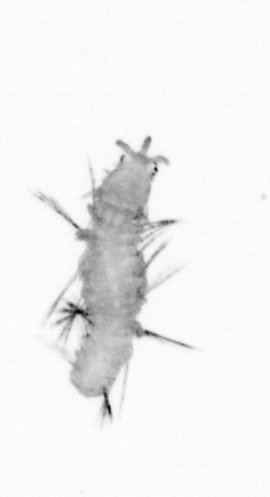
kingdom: Animalia
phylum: Annelida
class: Polychaeta
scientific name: Polychaeta
